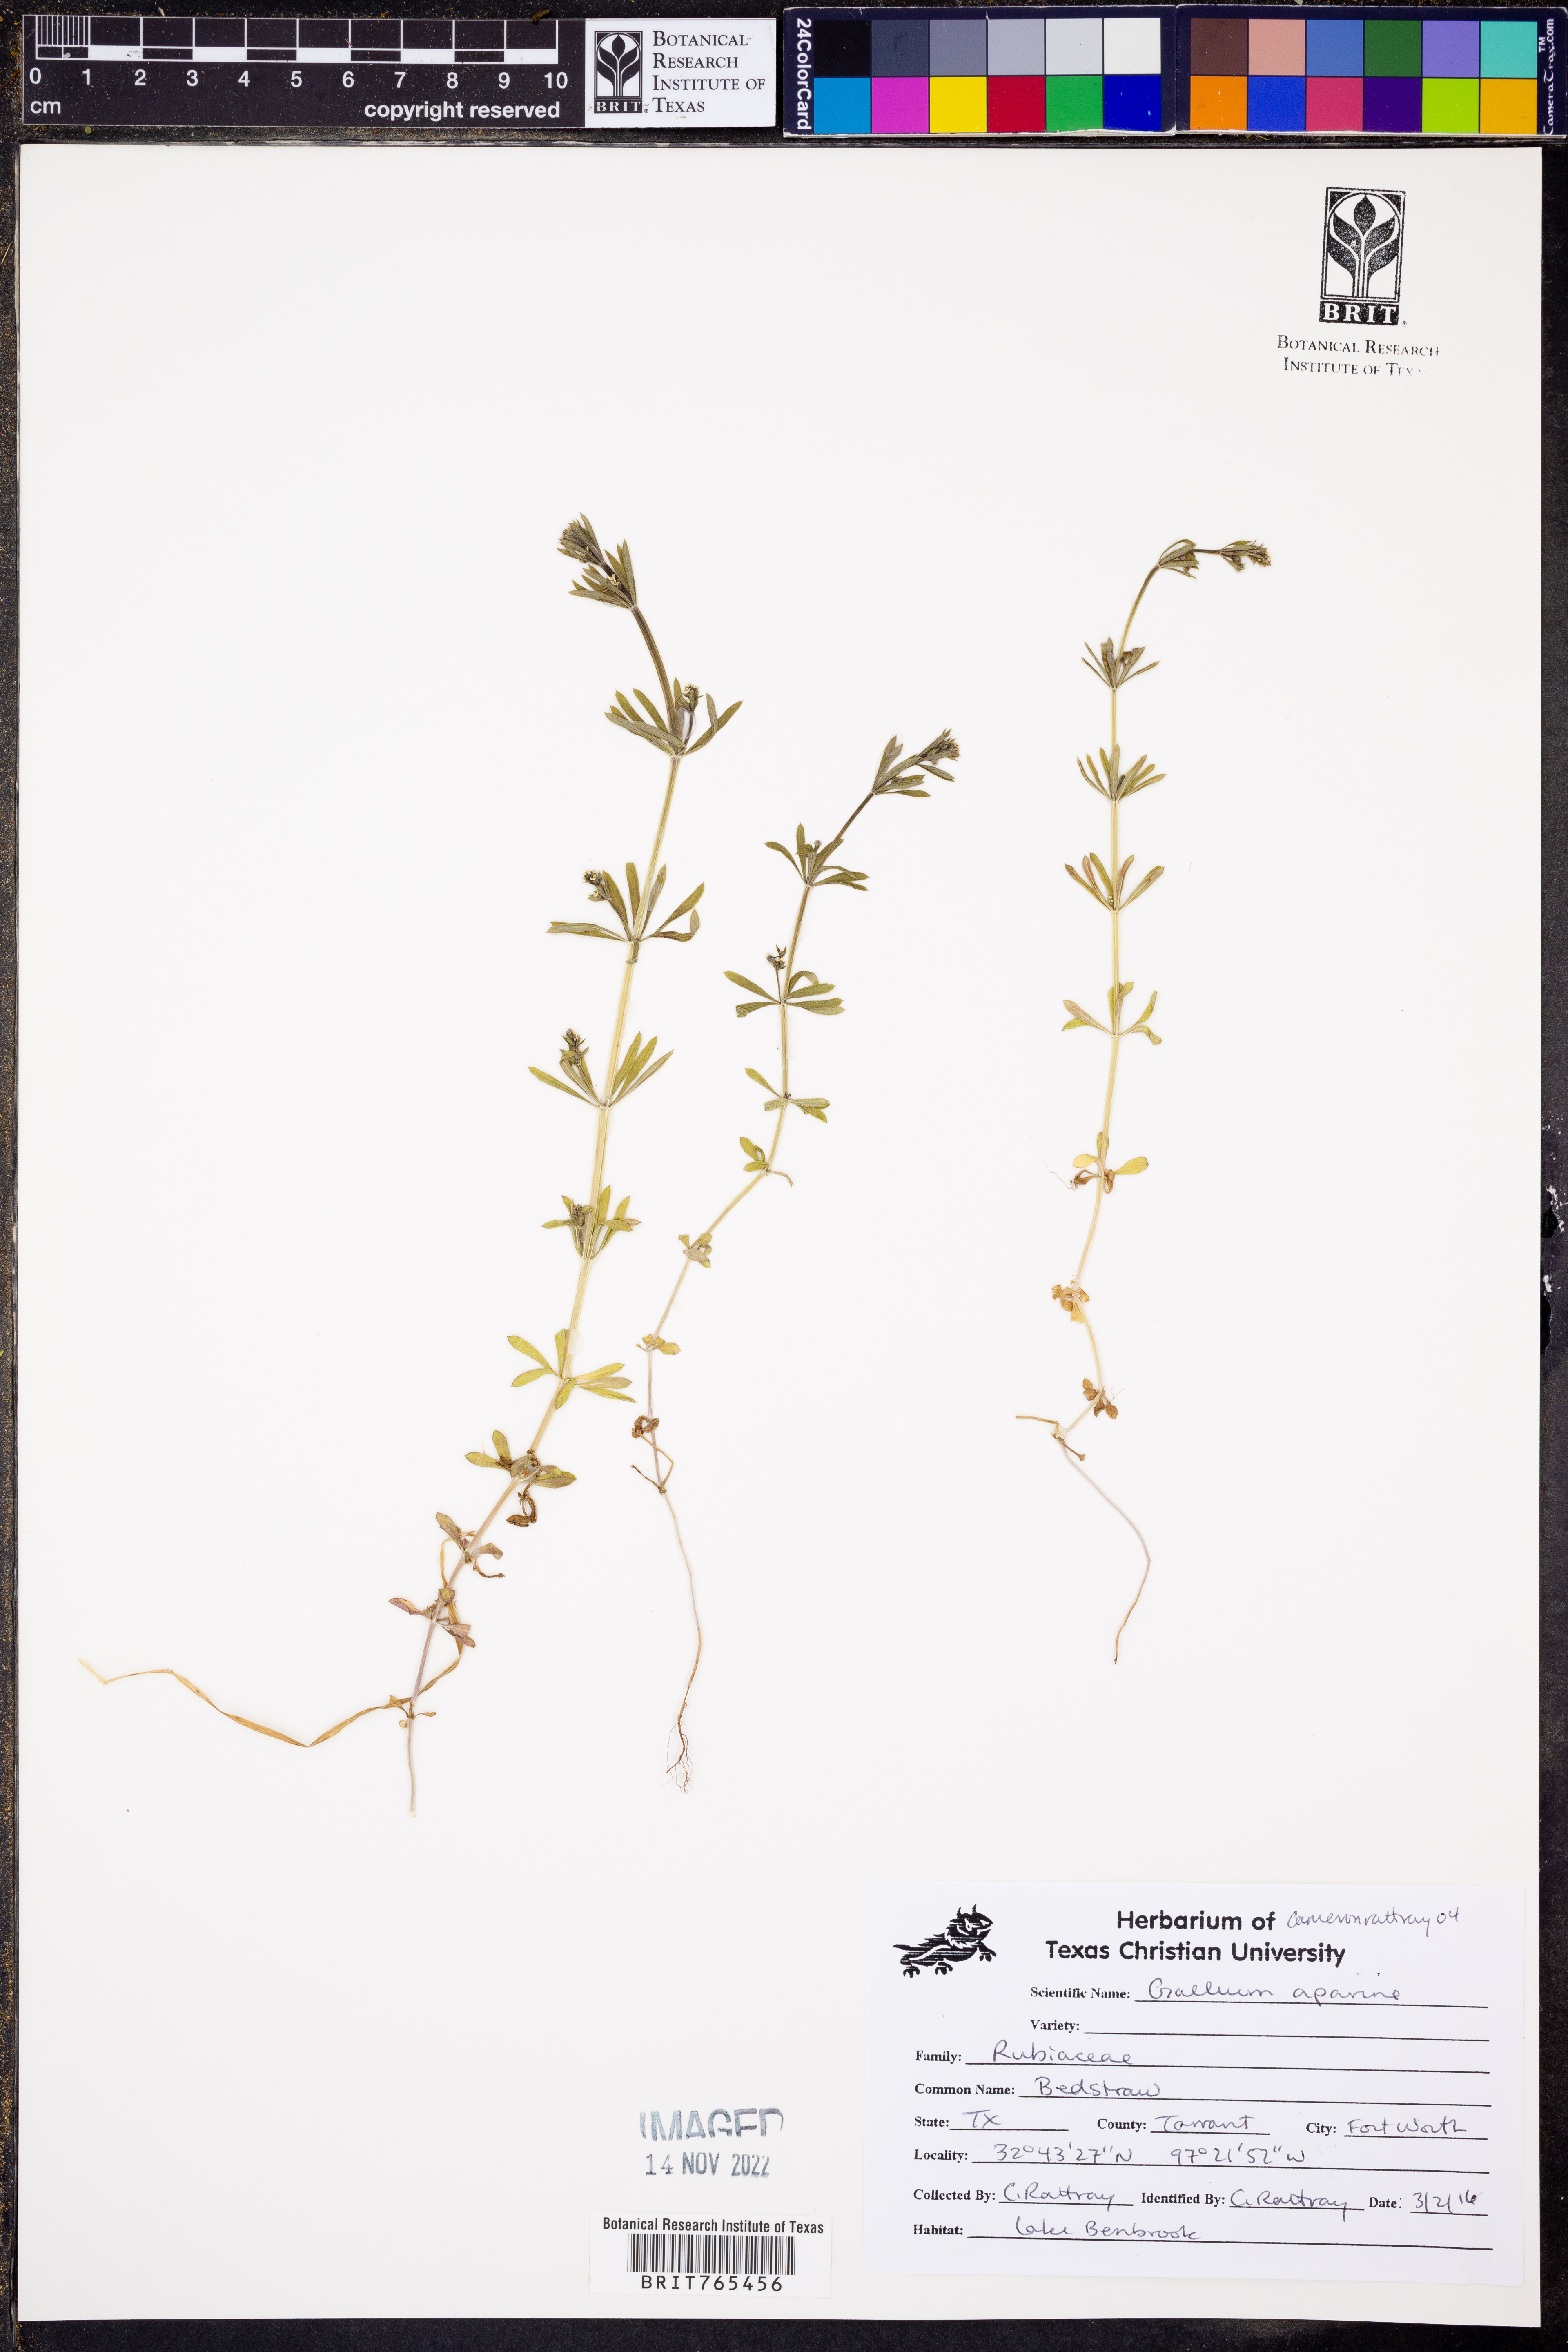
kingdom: Plantae
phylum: Tracheophyta
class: Magnoliopsida
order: Gentianales
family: Rubiaceae
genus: Galium
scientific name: Galium aparine
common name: Cleavers
